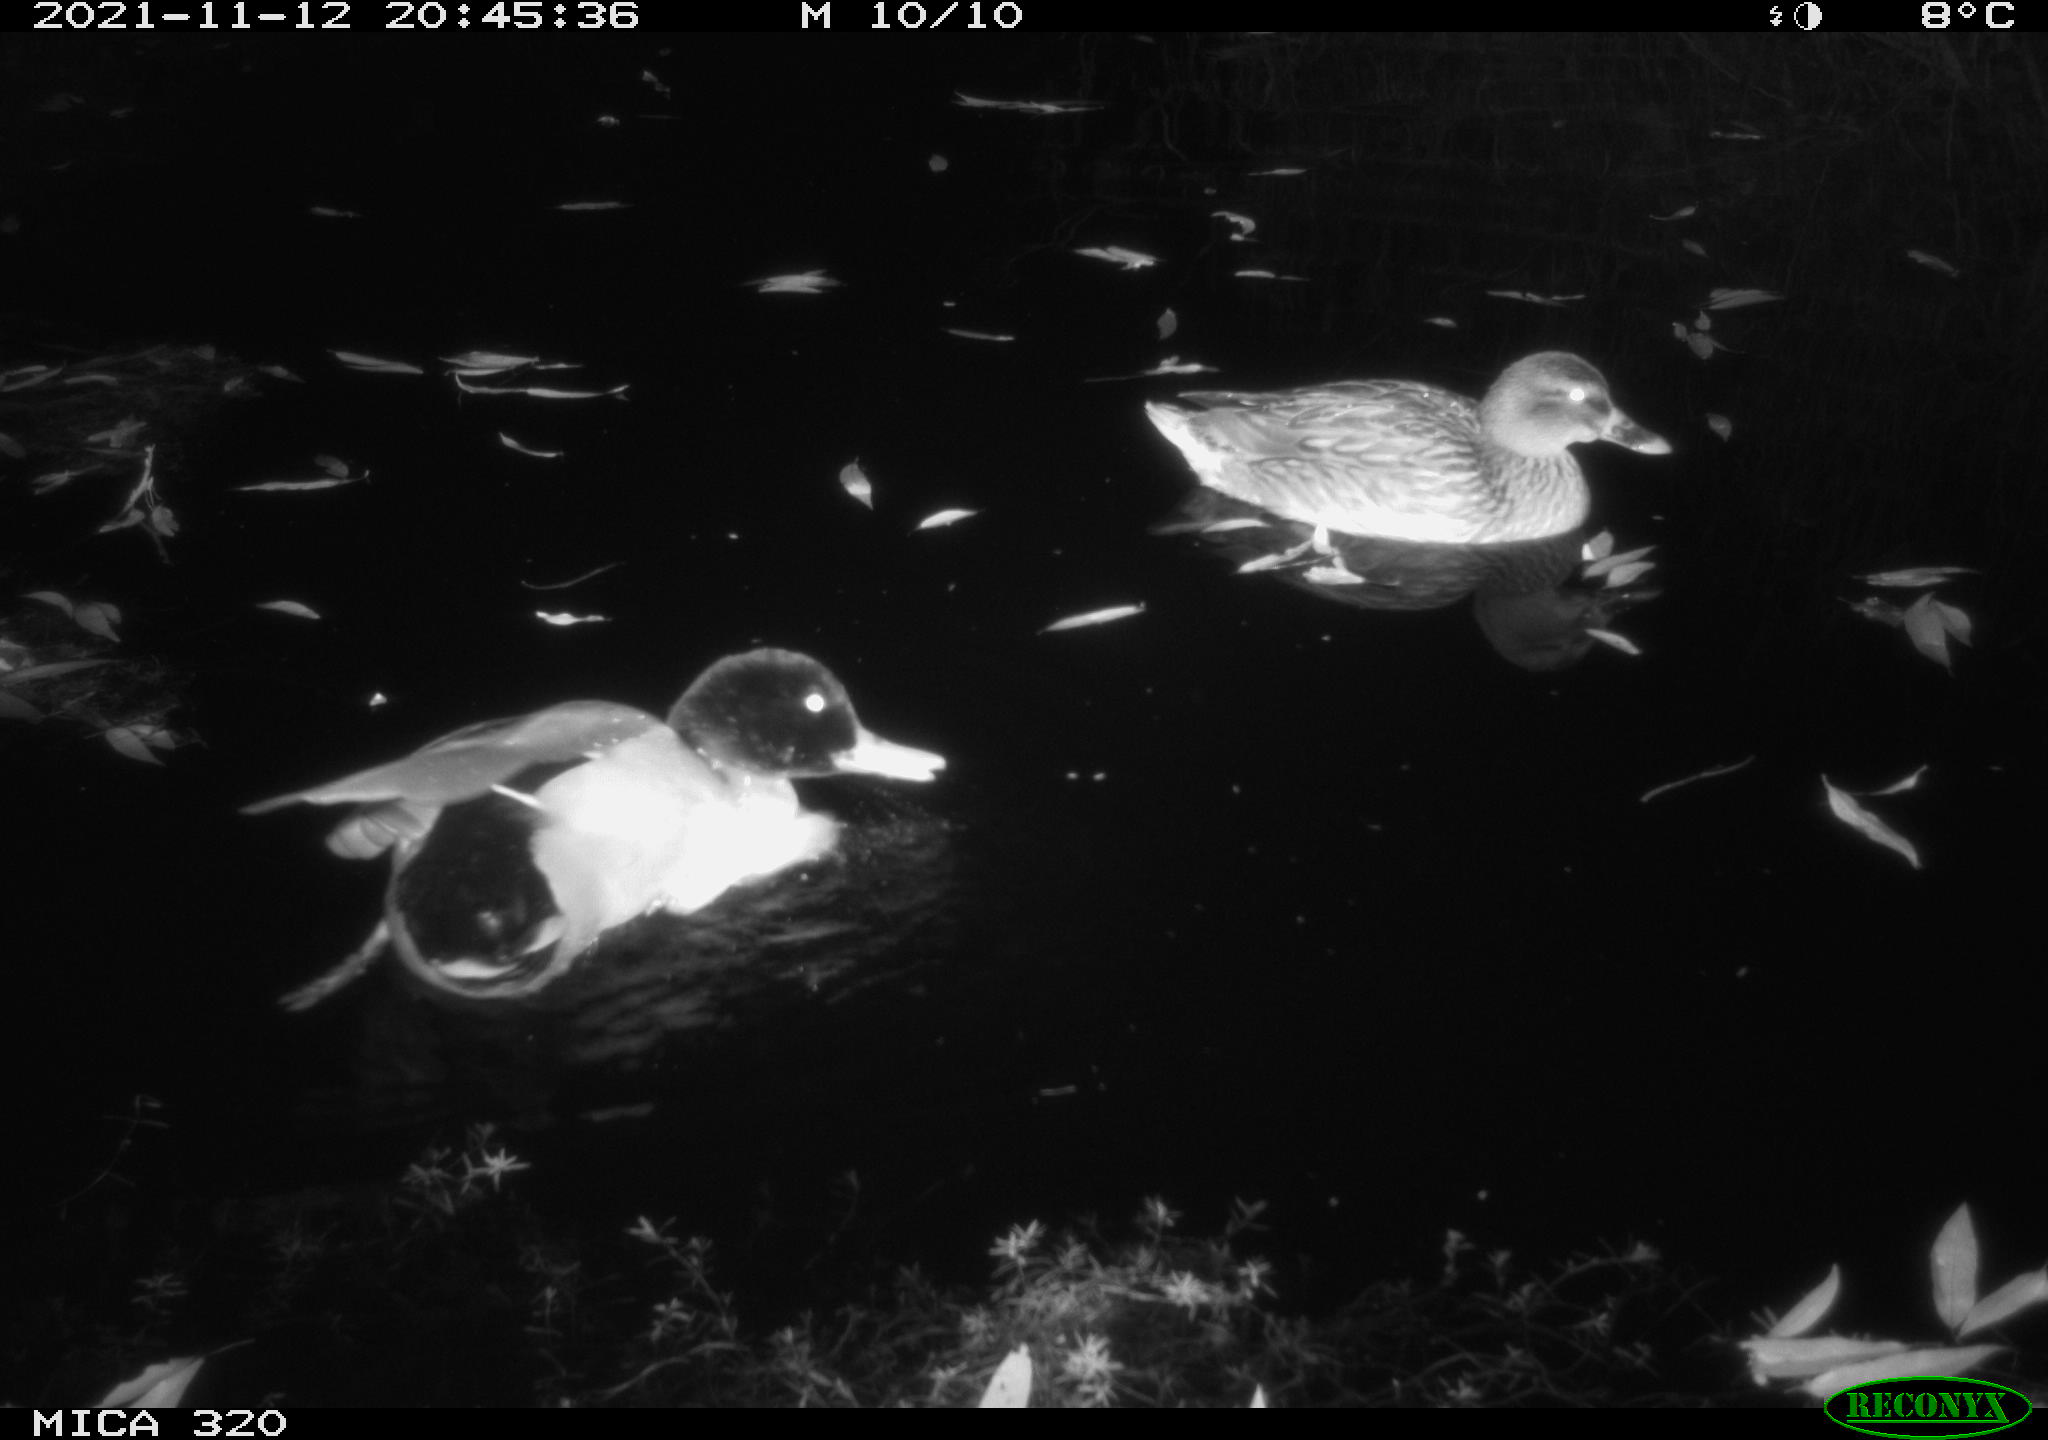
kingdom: Animalia
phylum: Chordata
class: Aves
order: Anseriformes
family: Anatidae
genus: Anas
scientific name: Anas platyrhynchos
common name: Mallard
